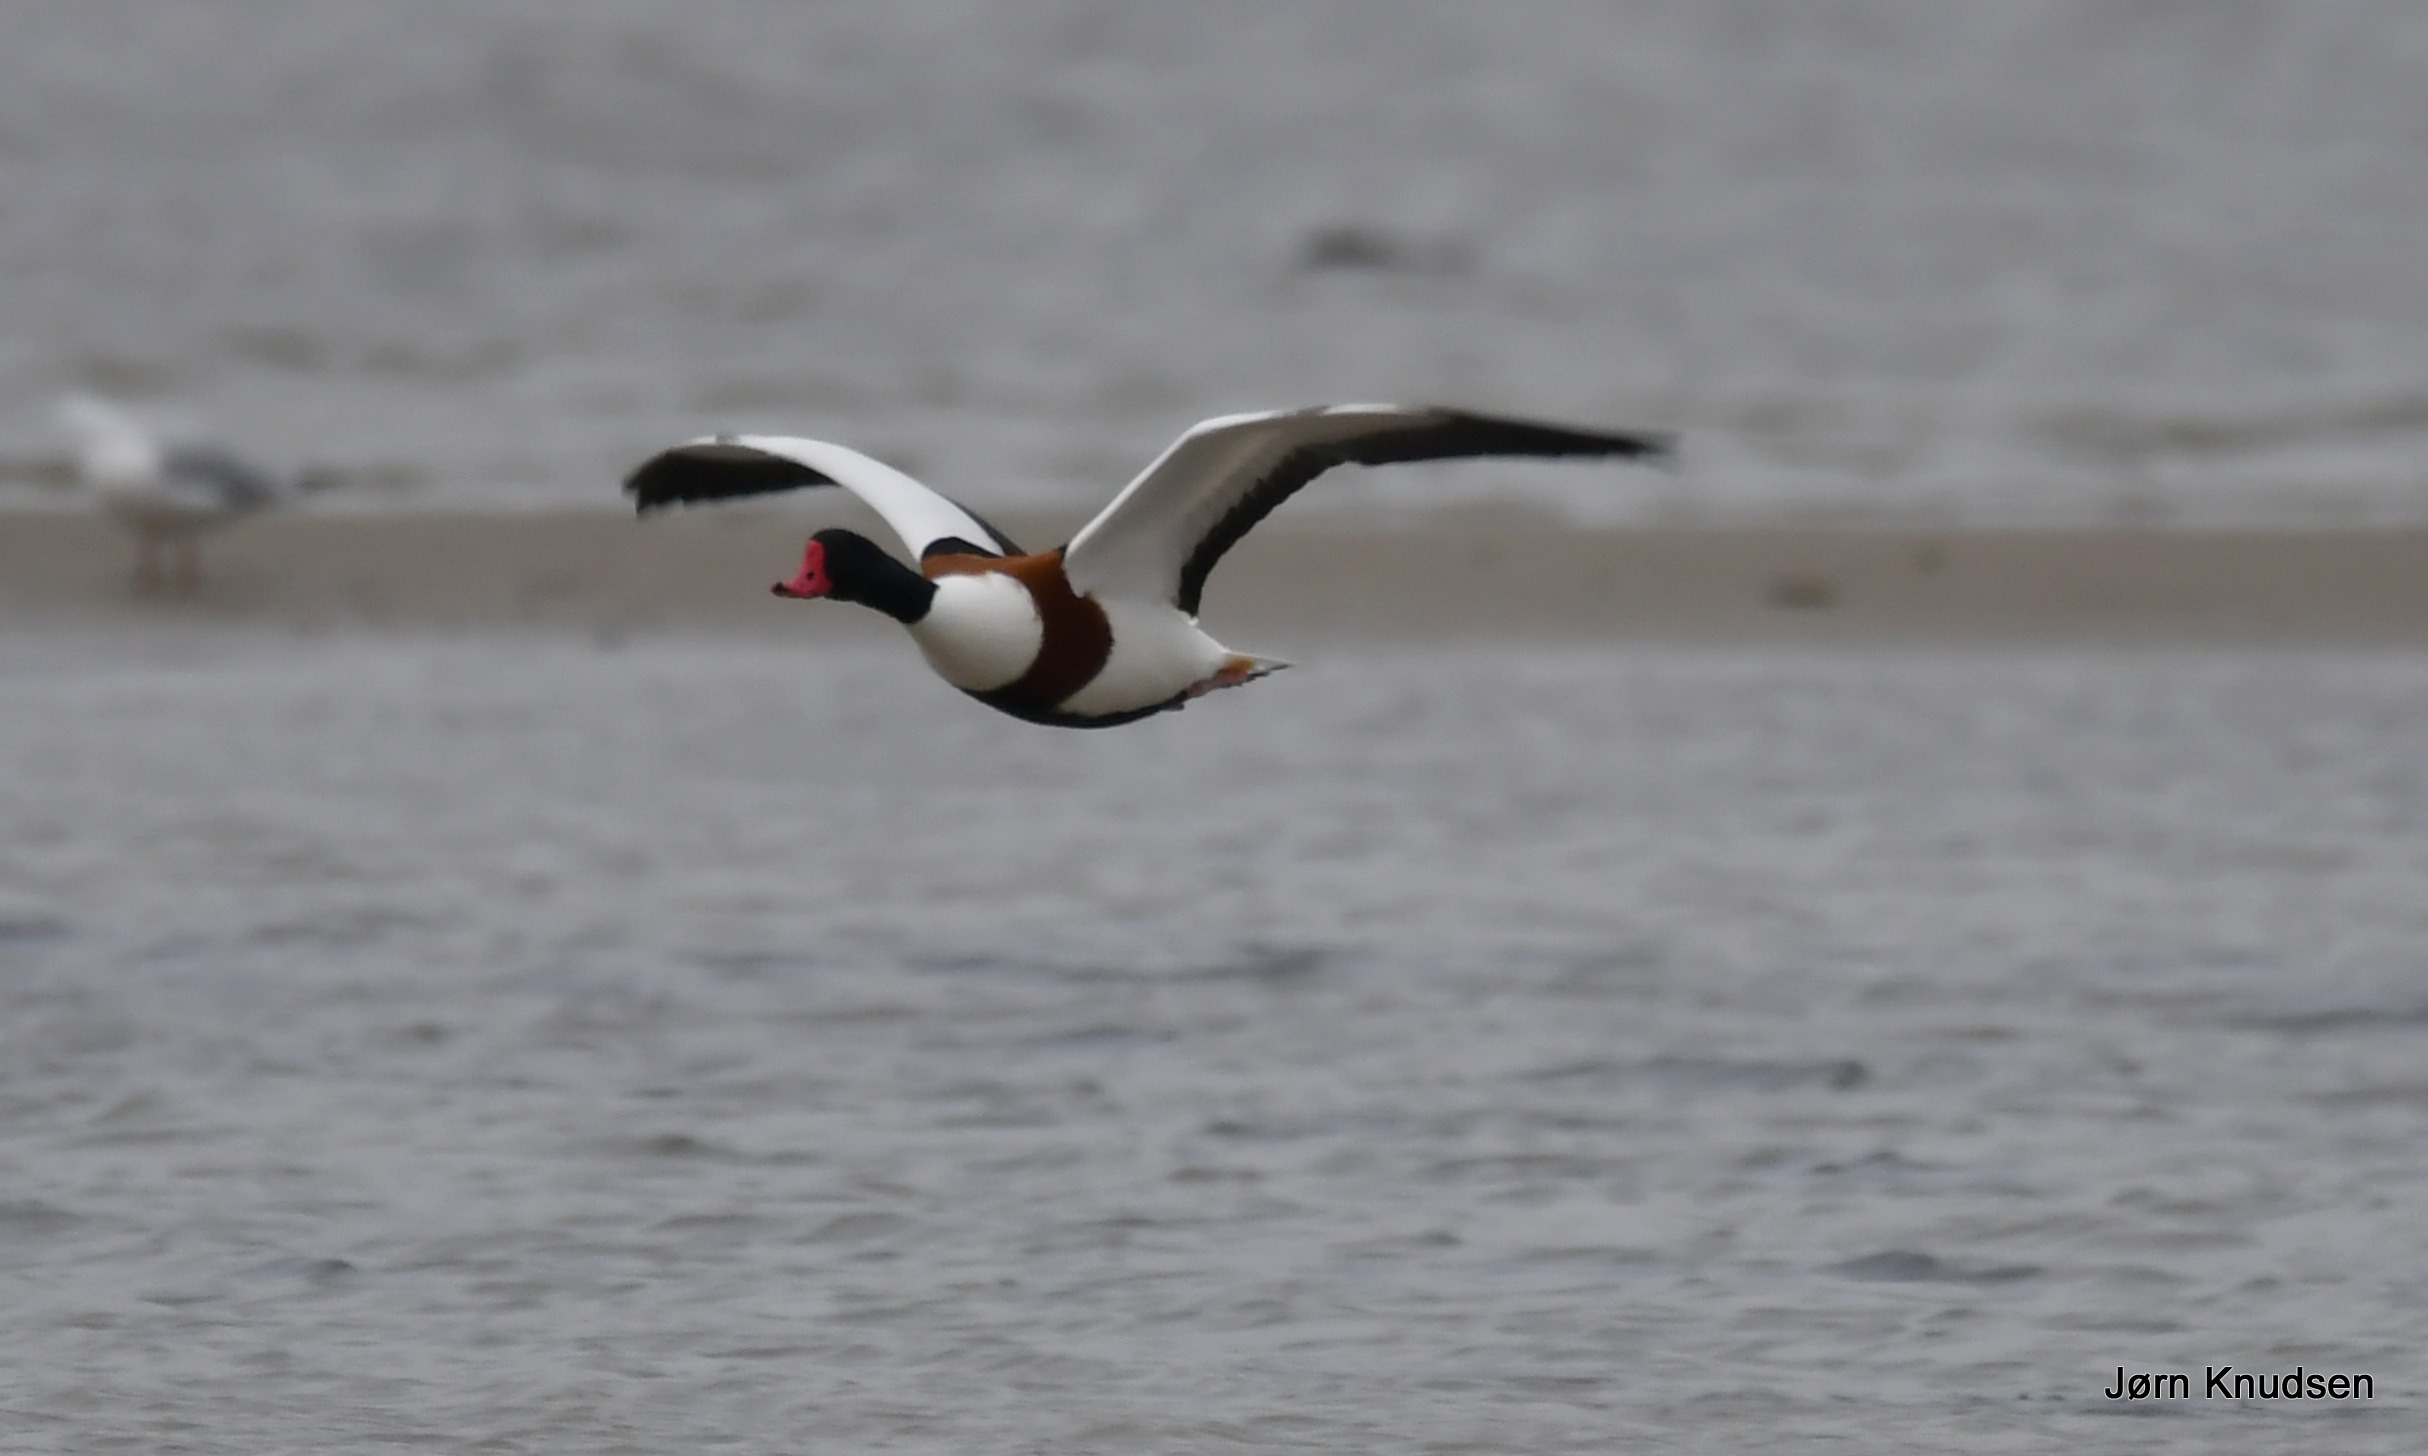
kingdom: Animalia
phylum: Chordata
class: Aves
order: Anseriformes
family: Anatidae
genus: Tadorna
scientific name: Tadorna tadorna
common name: Gravand
